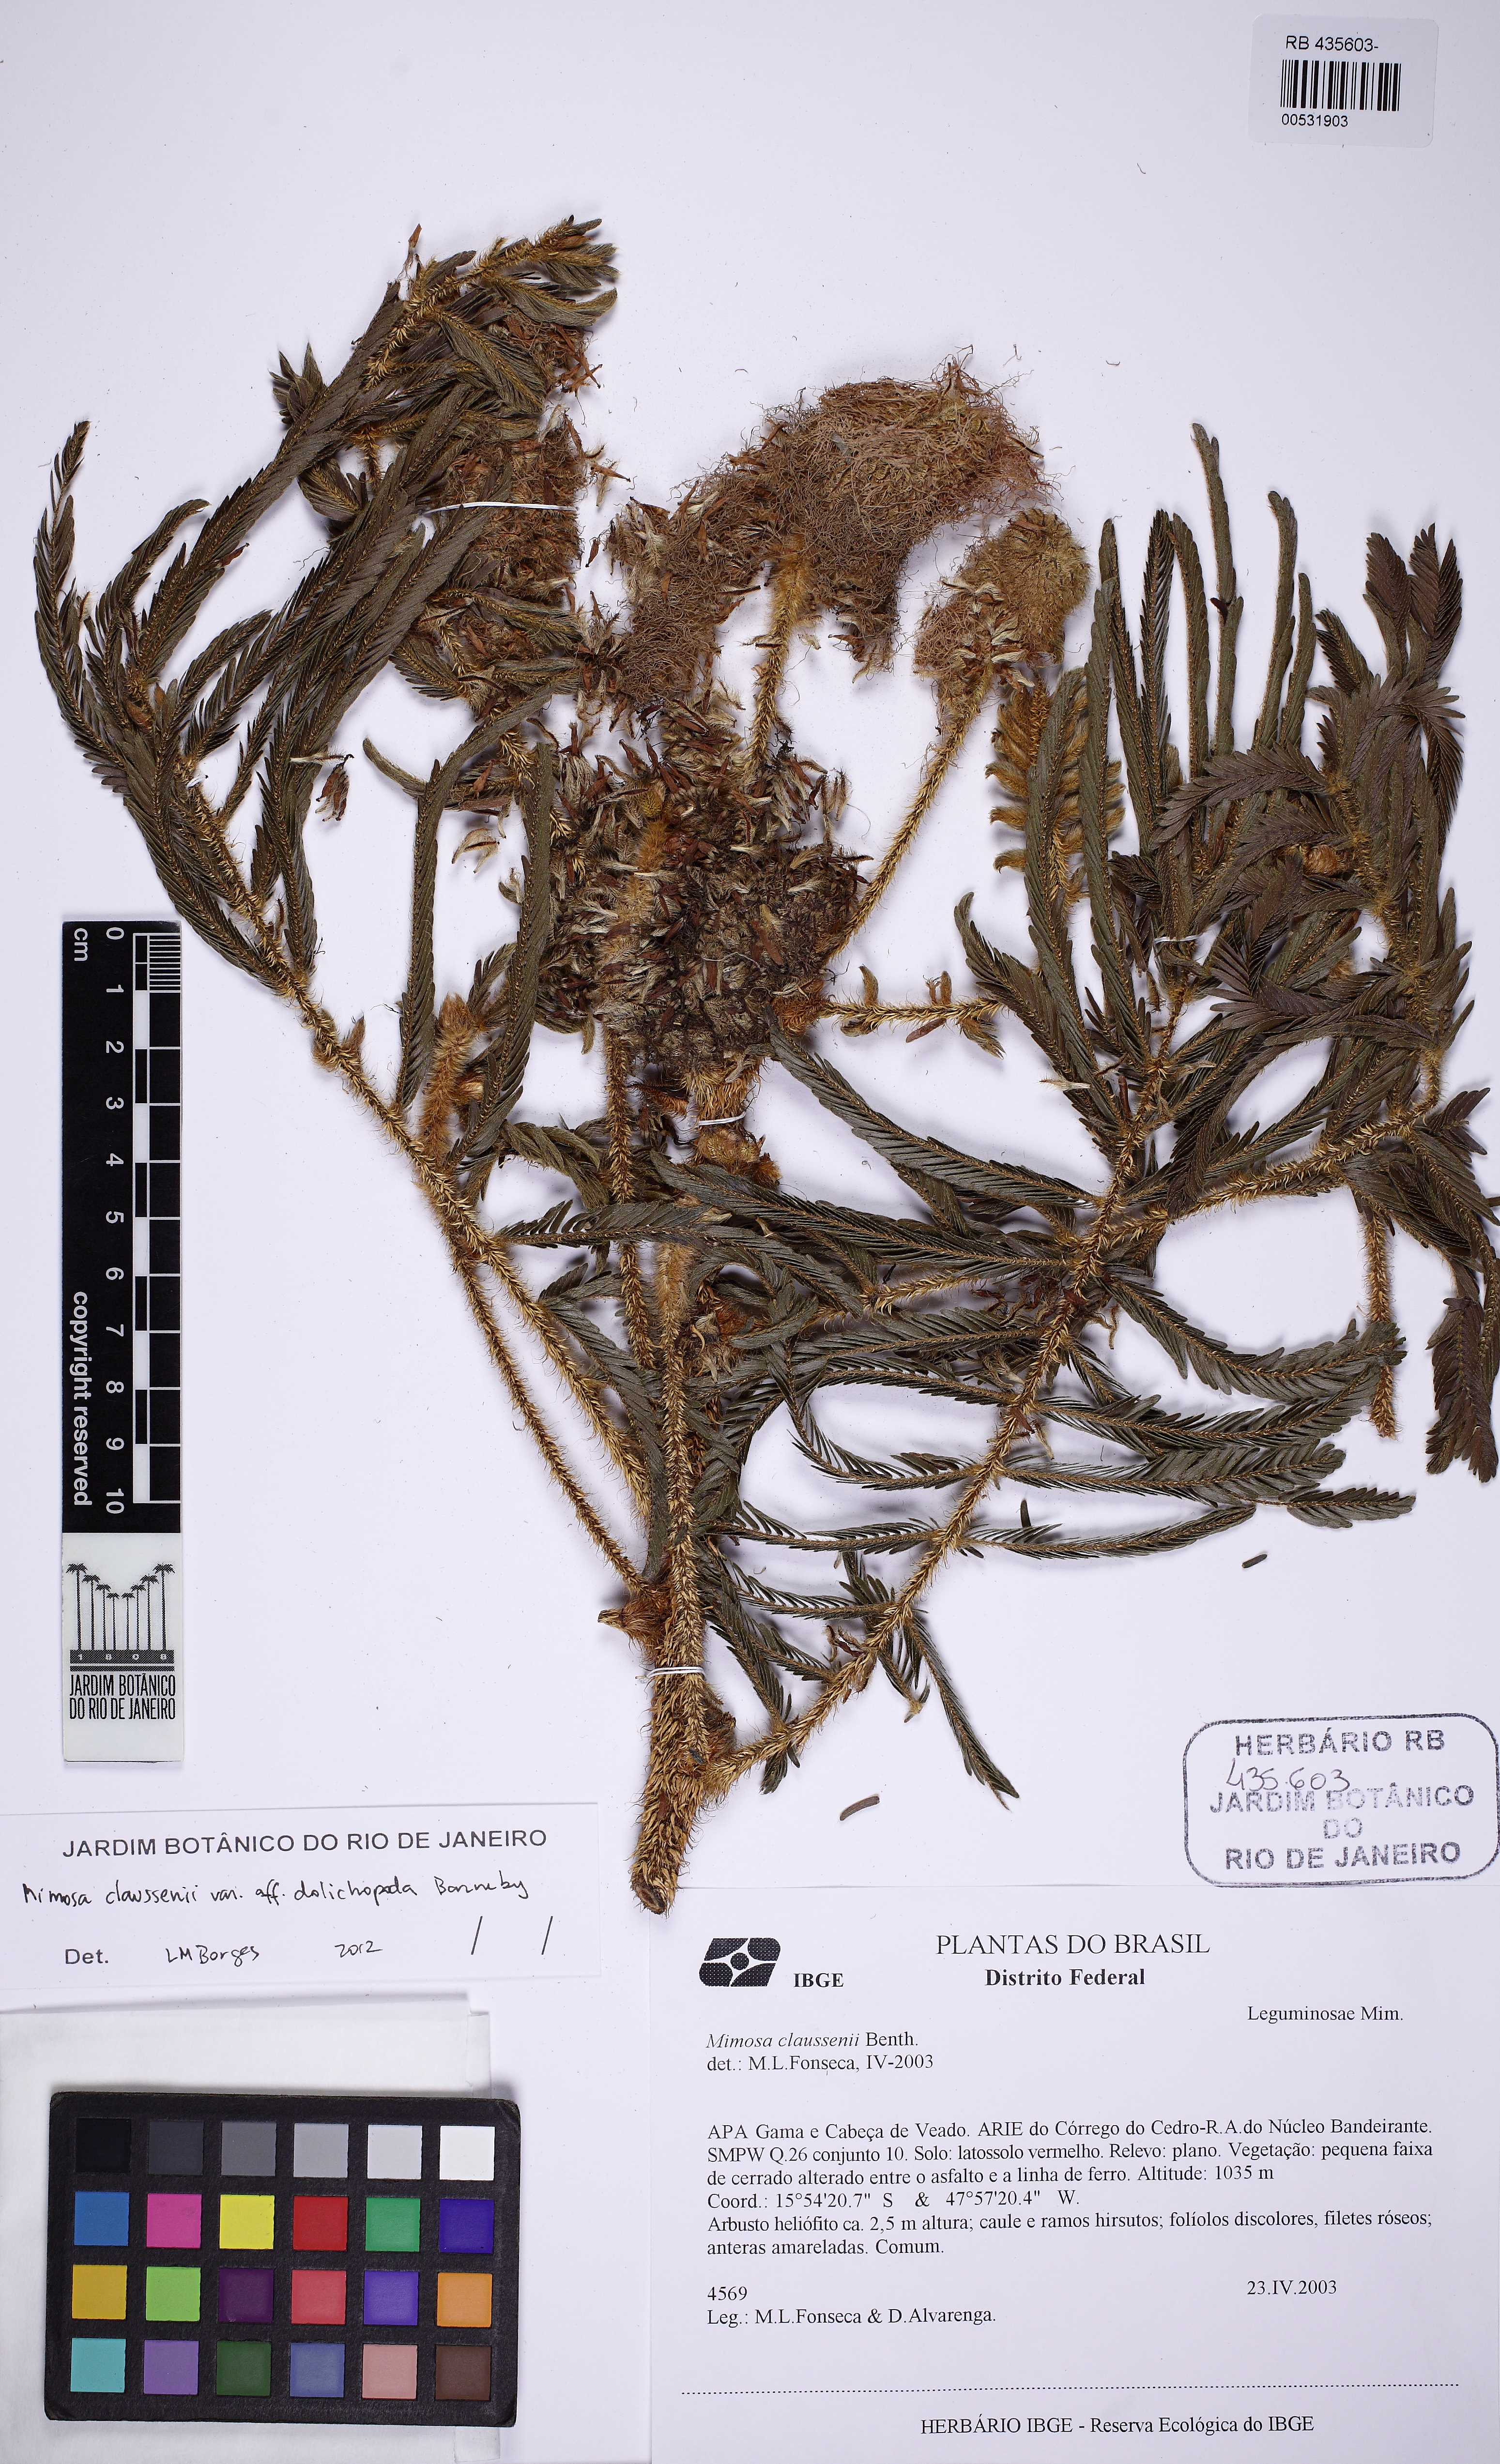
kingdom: Plantae
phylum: Tracheophyta
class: Magnoliopsida
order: Fabales
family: Fabaceae
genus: Mimosa
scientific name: Mimosa claussenii
